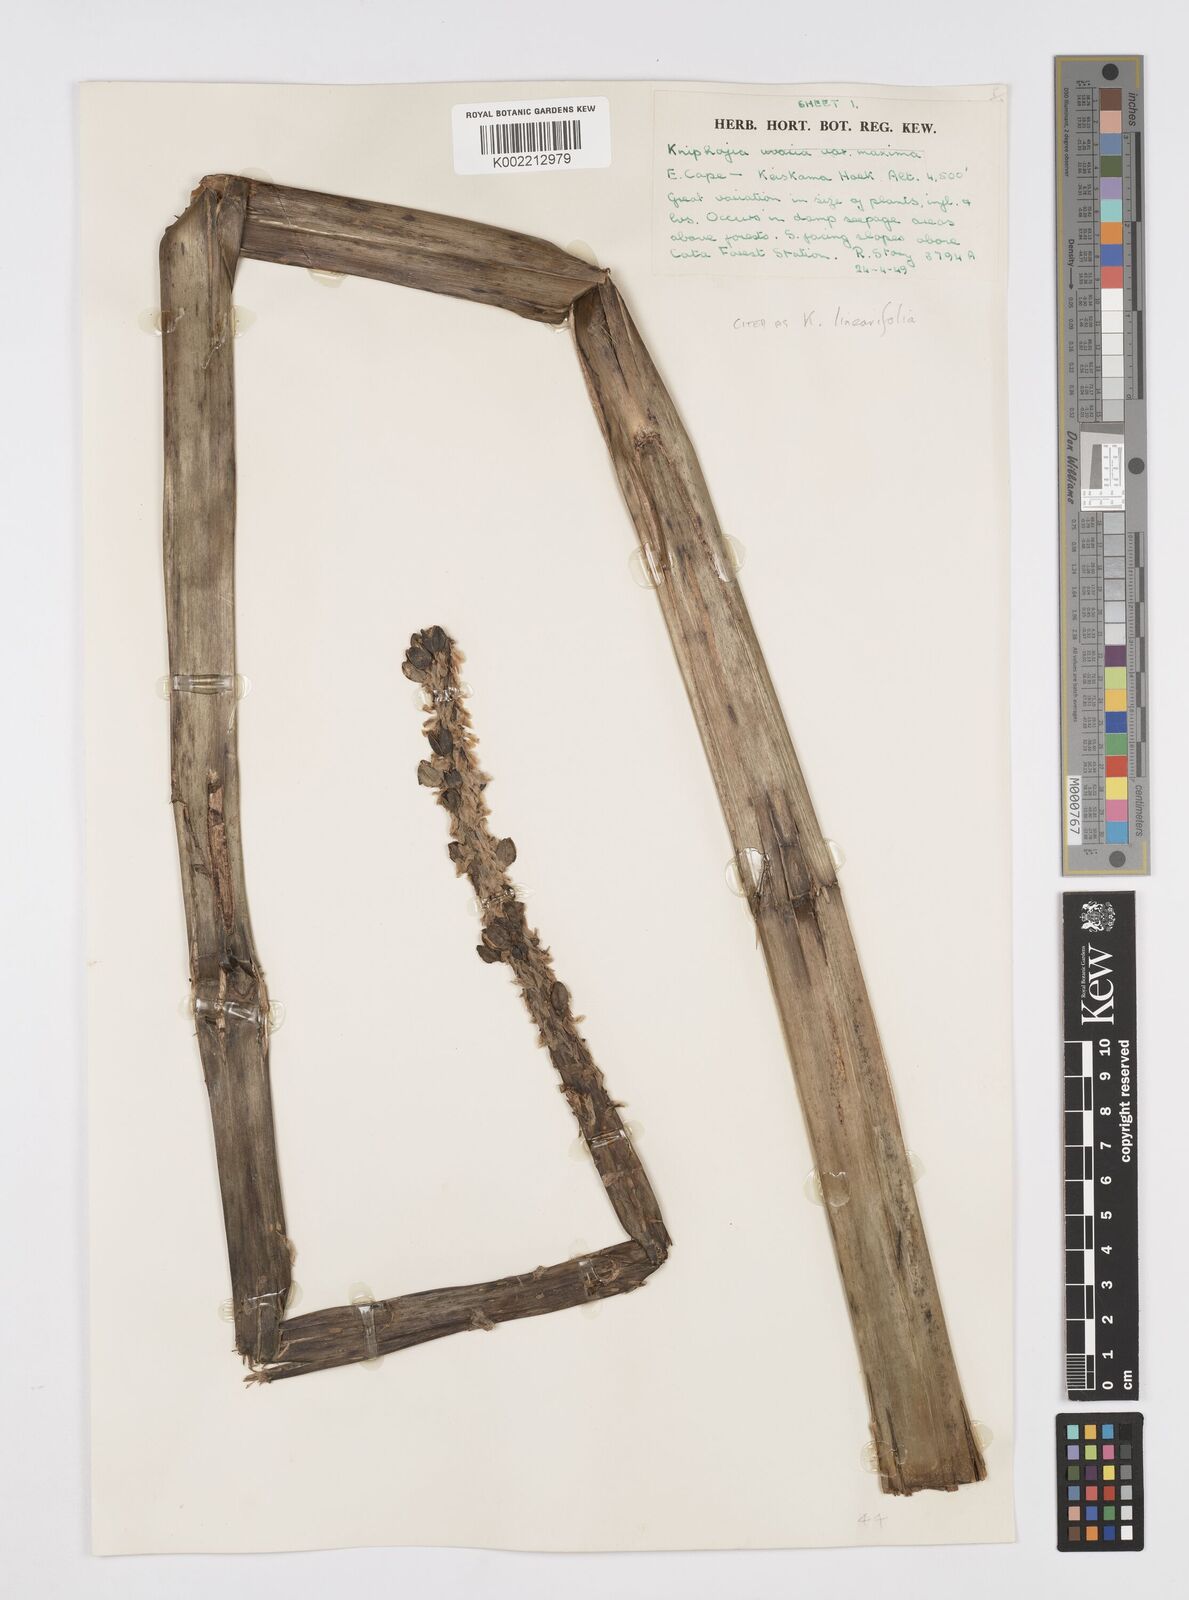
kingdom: Plantae
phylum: Tracheophyta
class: Liliopsida
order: Asparagales
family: Asphodelaceae
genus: Kniphofia
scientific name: Kniphofia linearifolia
